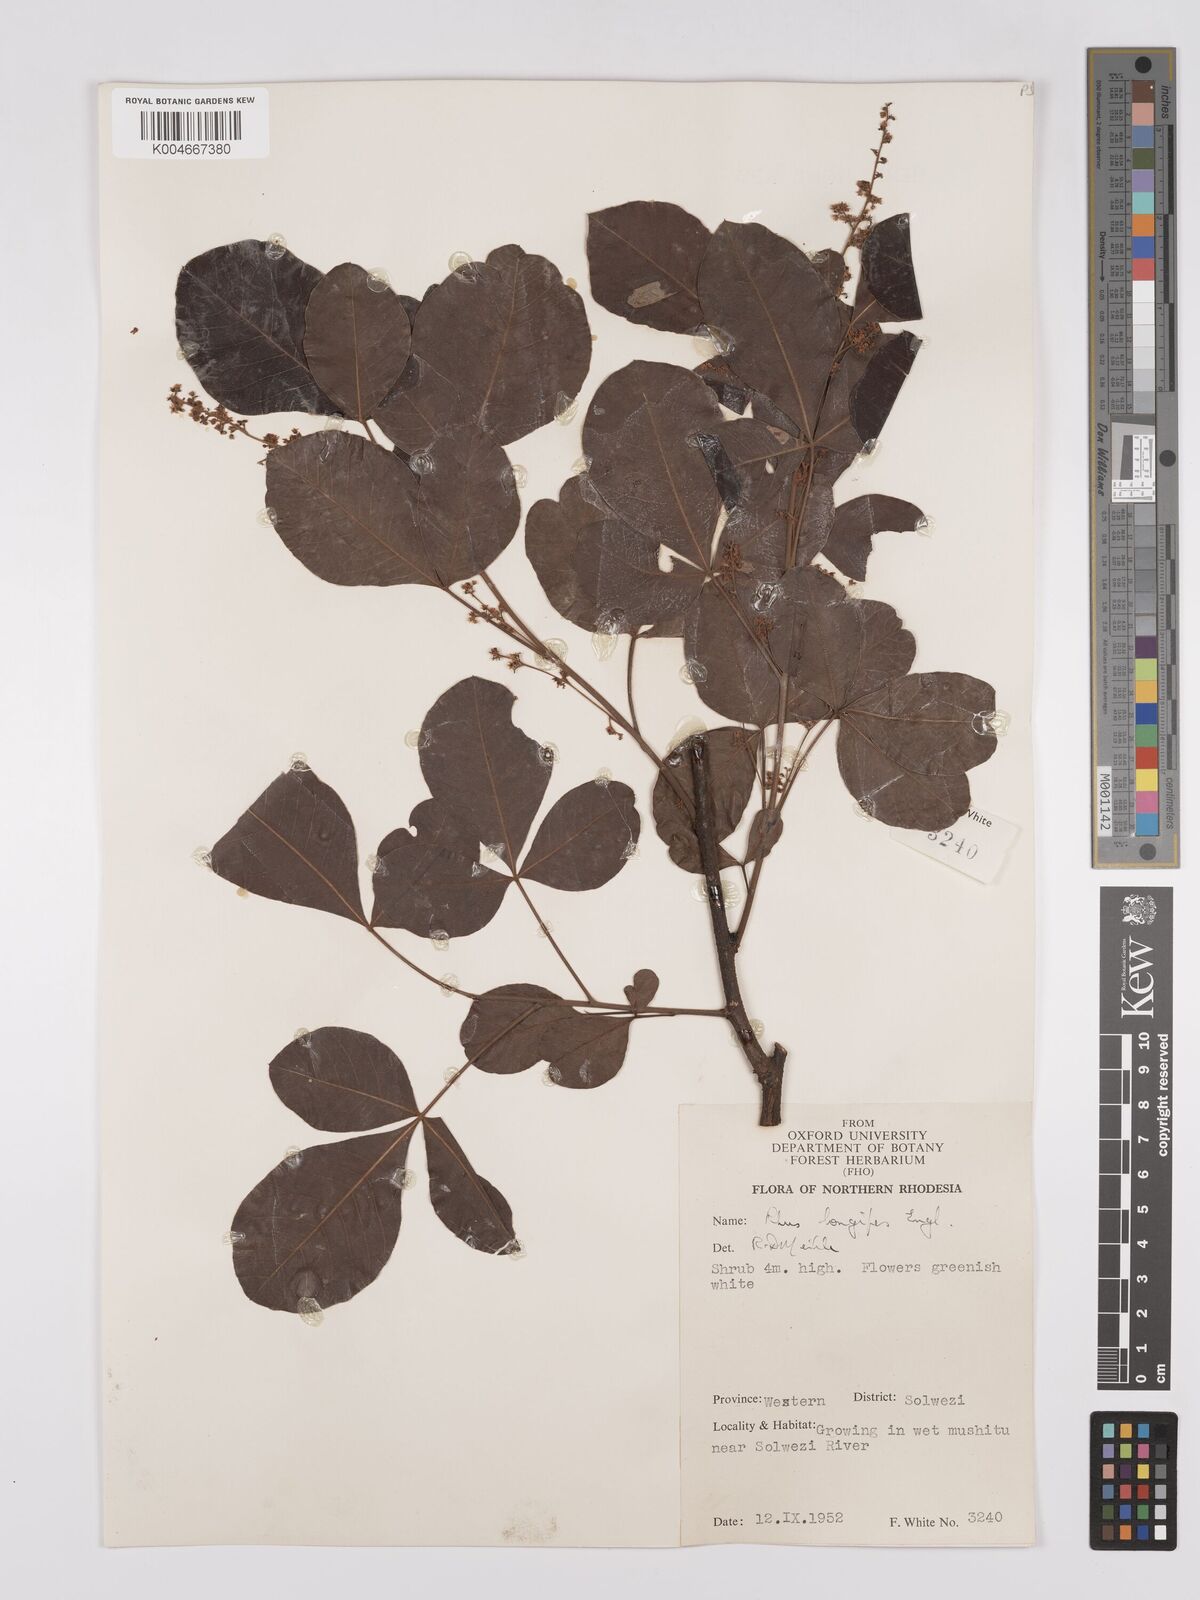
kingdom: Plantae
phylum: Tracheophyta
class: Magnoliopsida
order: Sapindales
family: Anacardiaceae
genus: Searsia
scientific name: Searsia longipes
